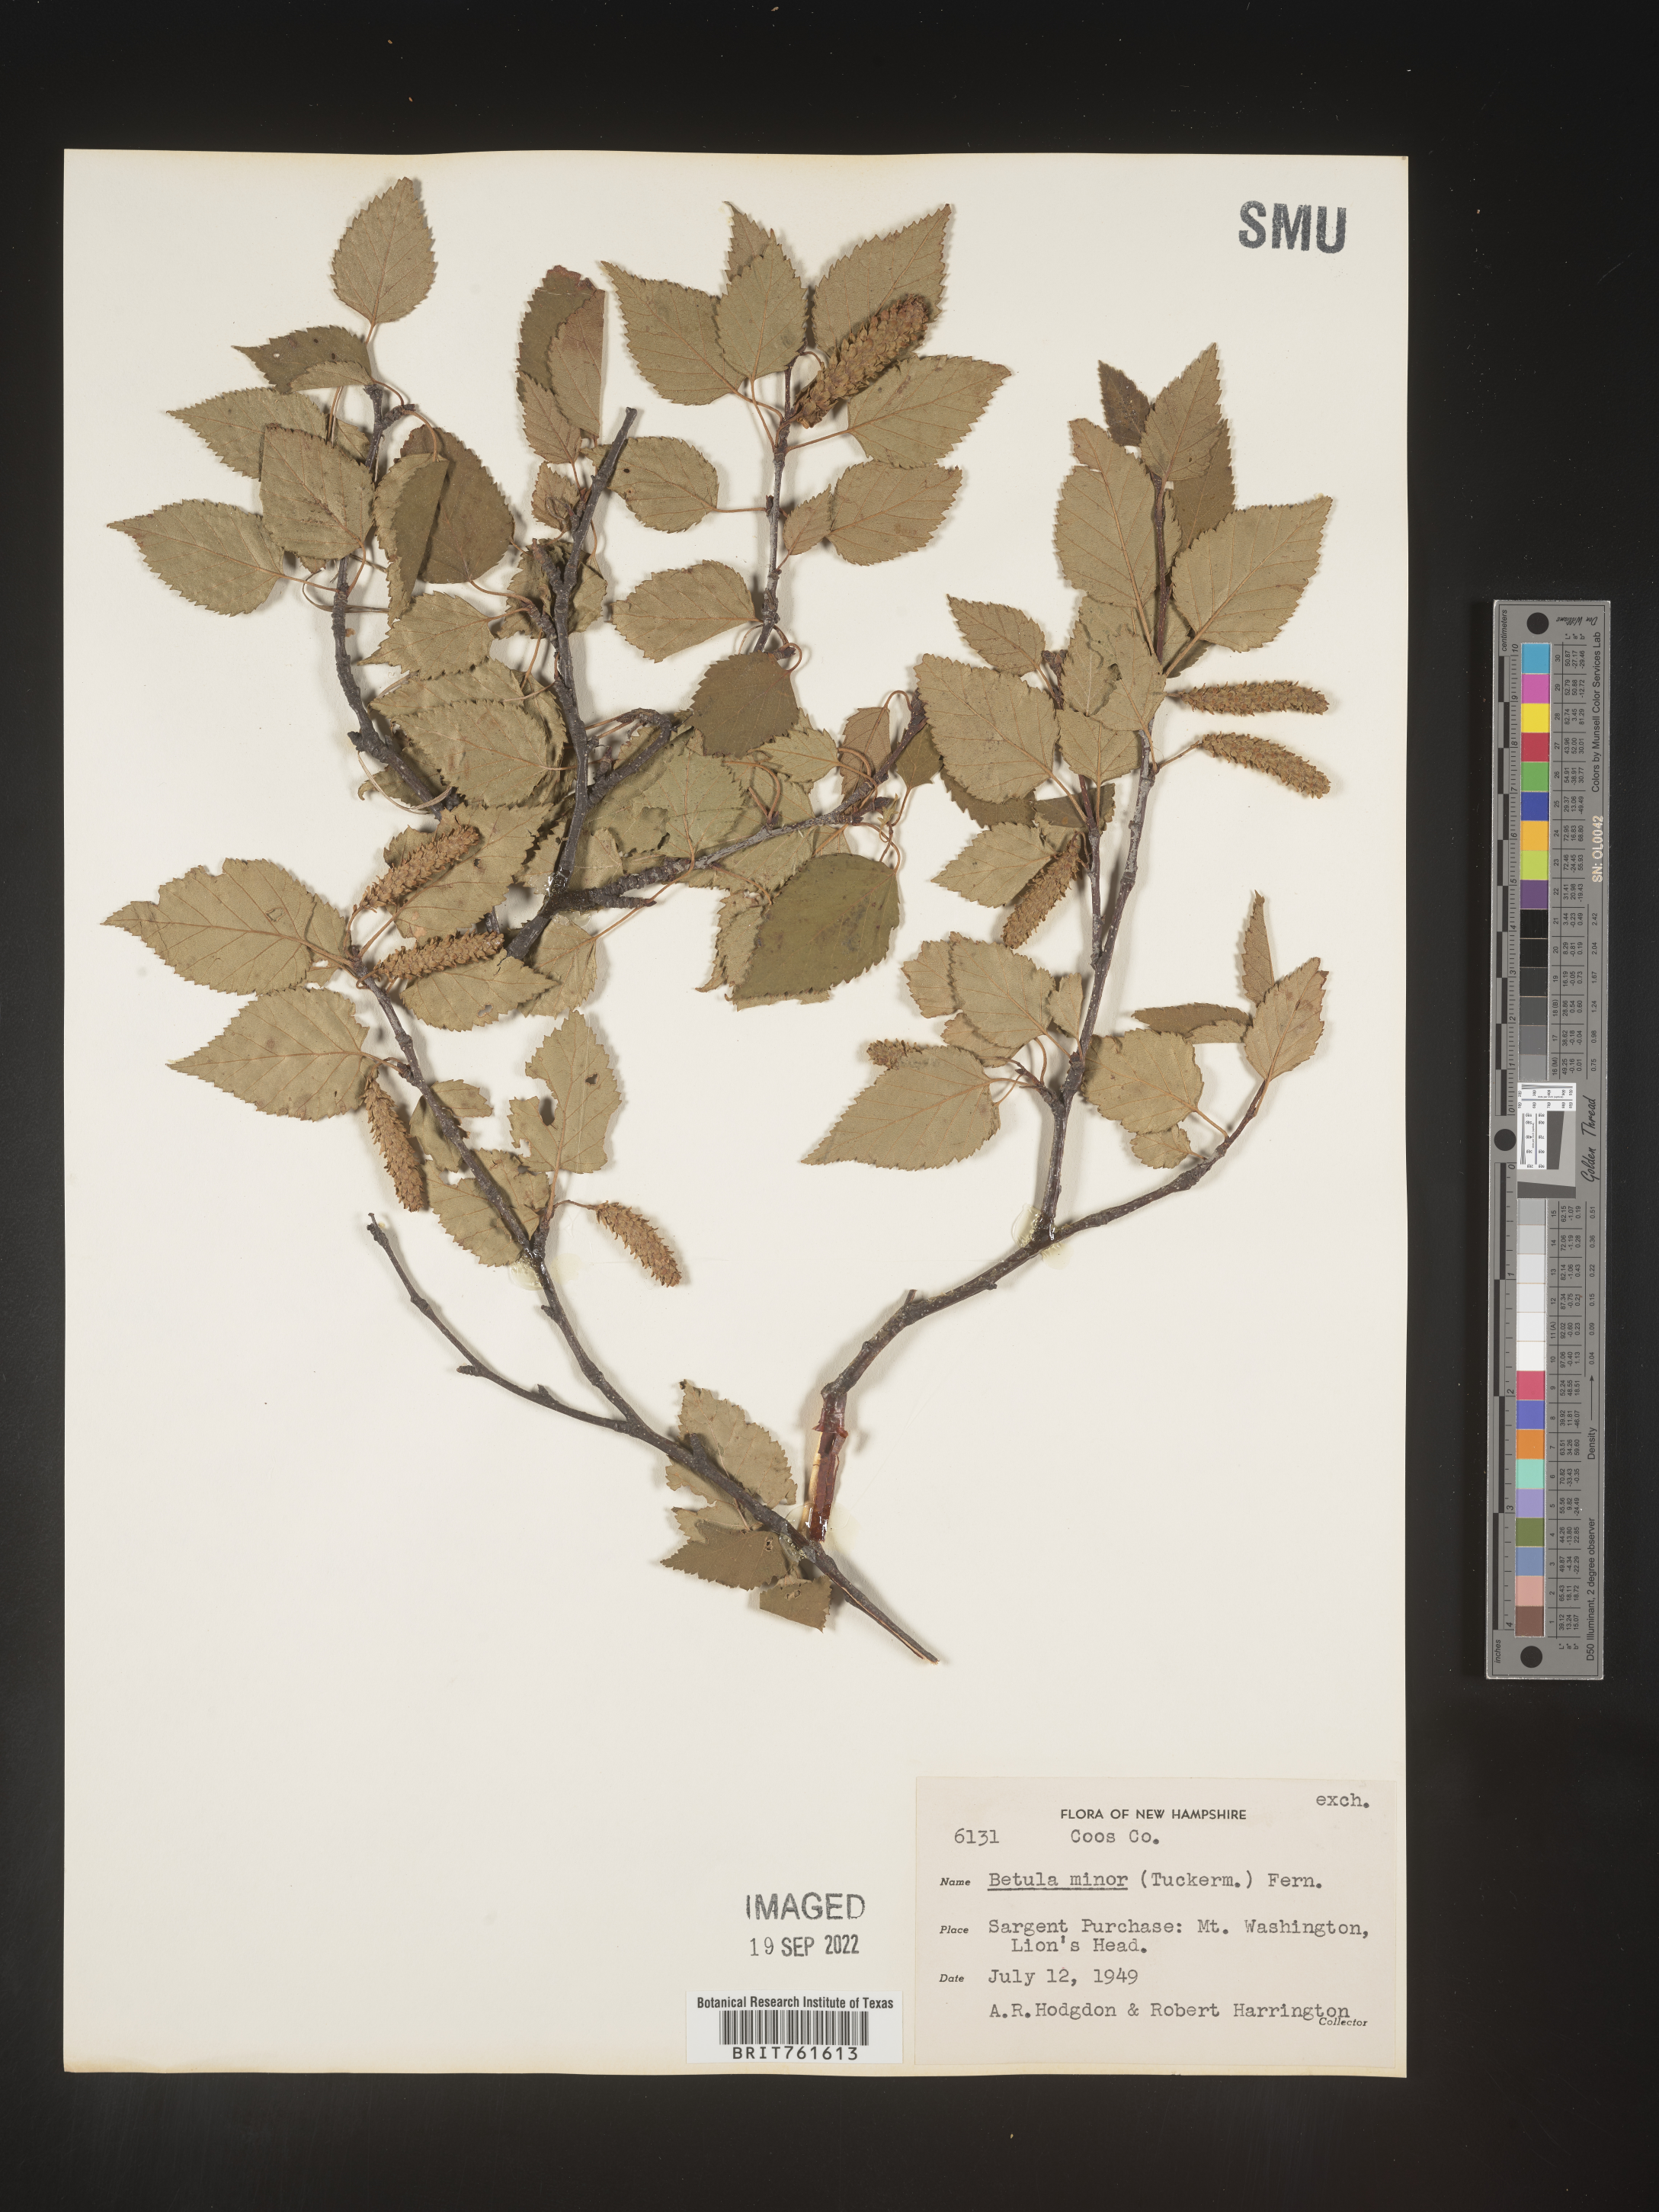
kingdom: Plantae
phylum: Tracheophyta
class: Magnoliopsida
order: Fagales
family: Betulaceae
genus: Betula
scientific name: Betula
